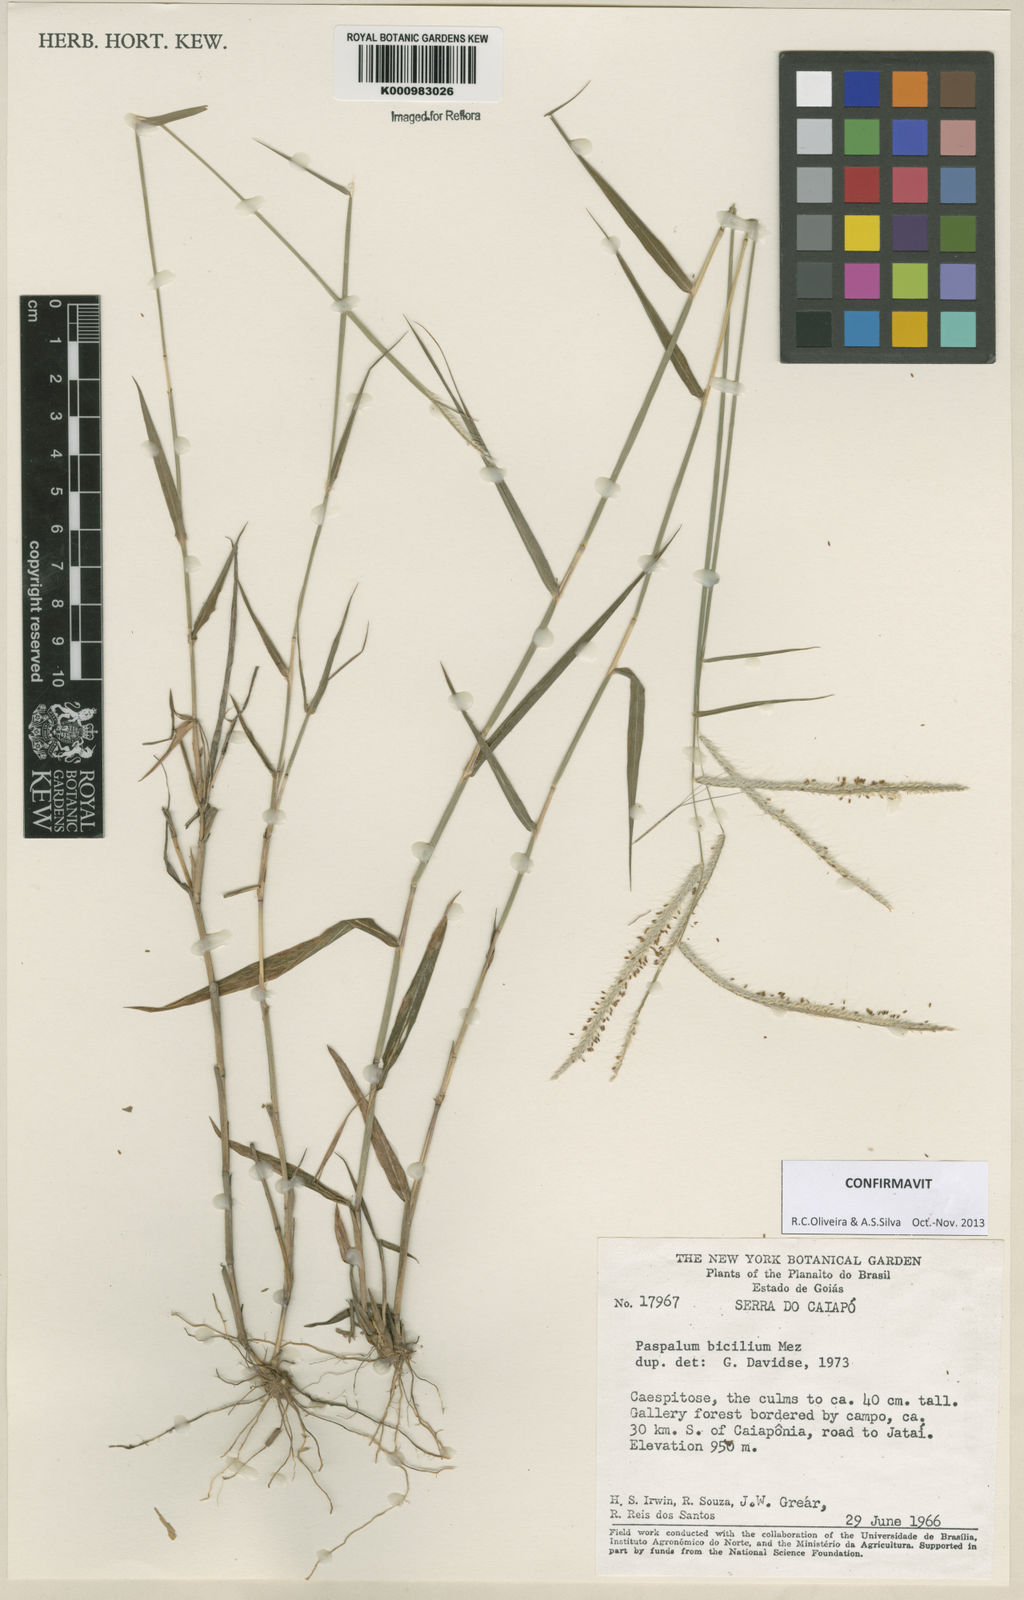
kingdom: Plantae
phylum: Tracheophyta
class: Liliopsida
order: Poales
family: Poaceae
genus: Paspalum
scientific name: Paspalum polyphyllum
